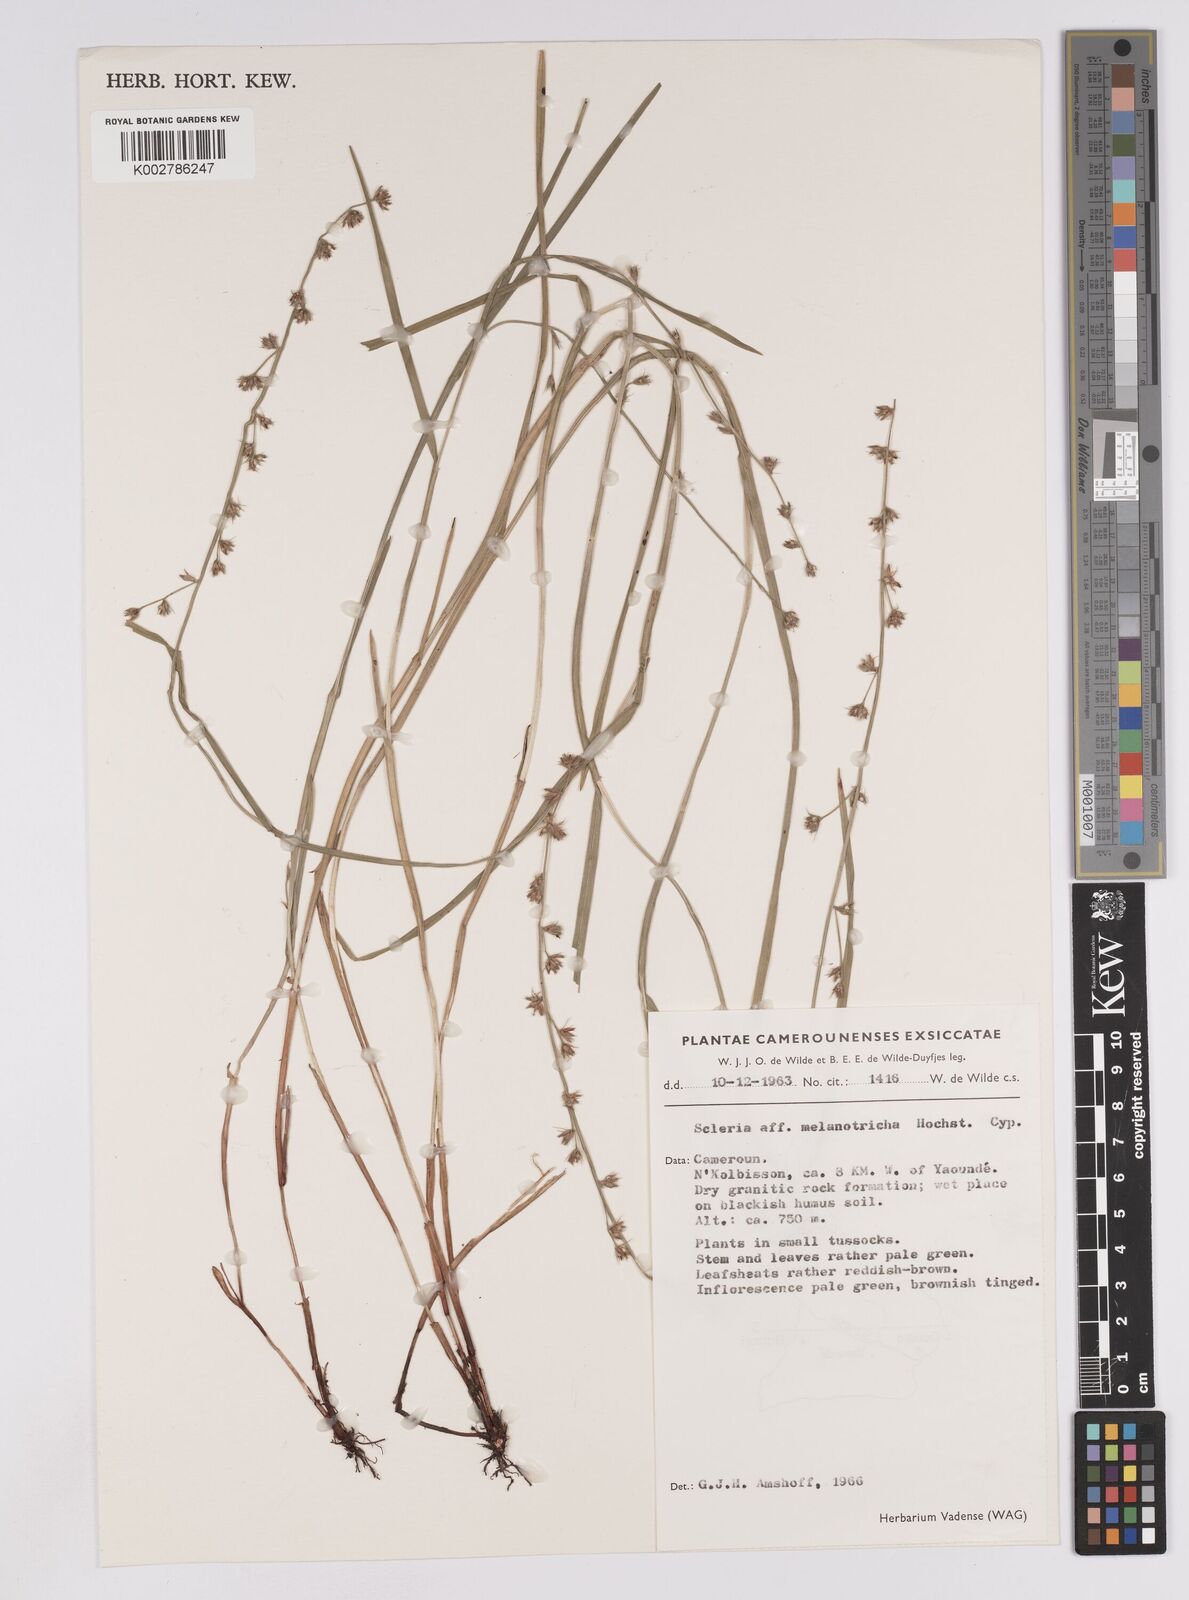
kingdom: Plantae
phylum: Tracheophyta
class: Liliopsida
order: Poales
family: Cyperaceae
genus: Scleria
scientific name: Scleria melanotricha
